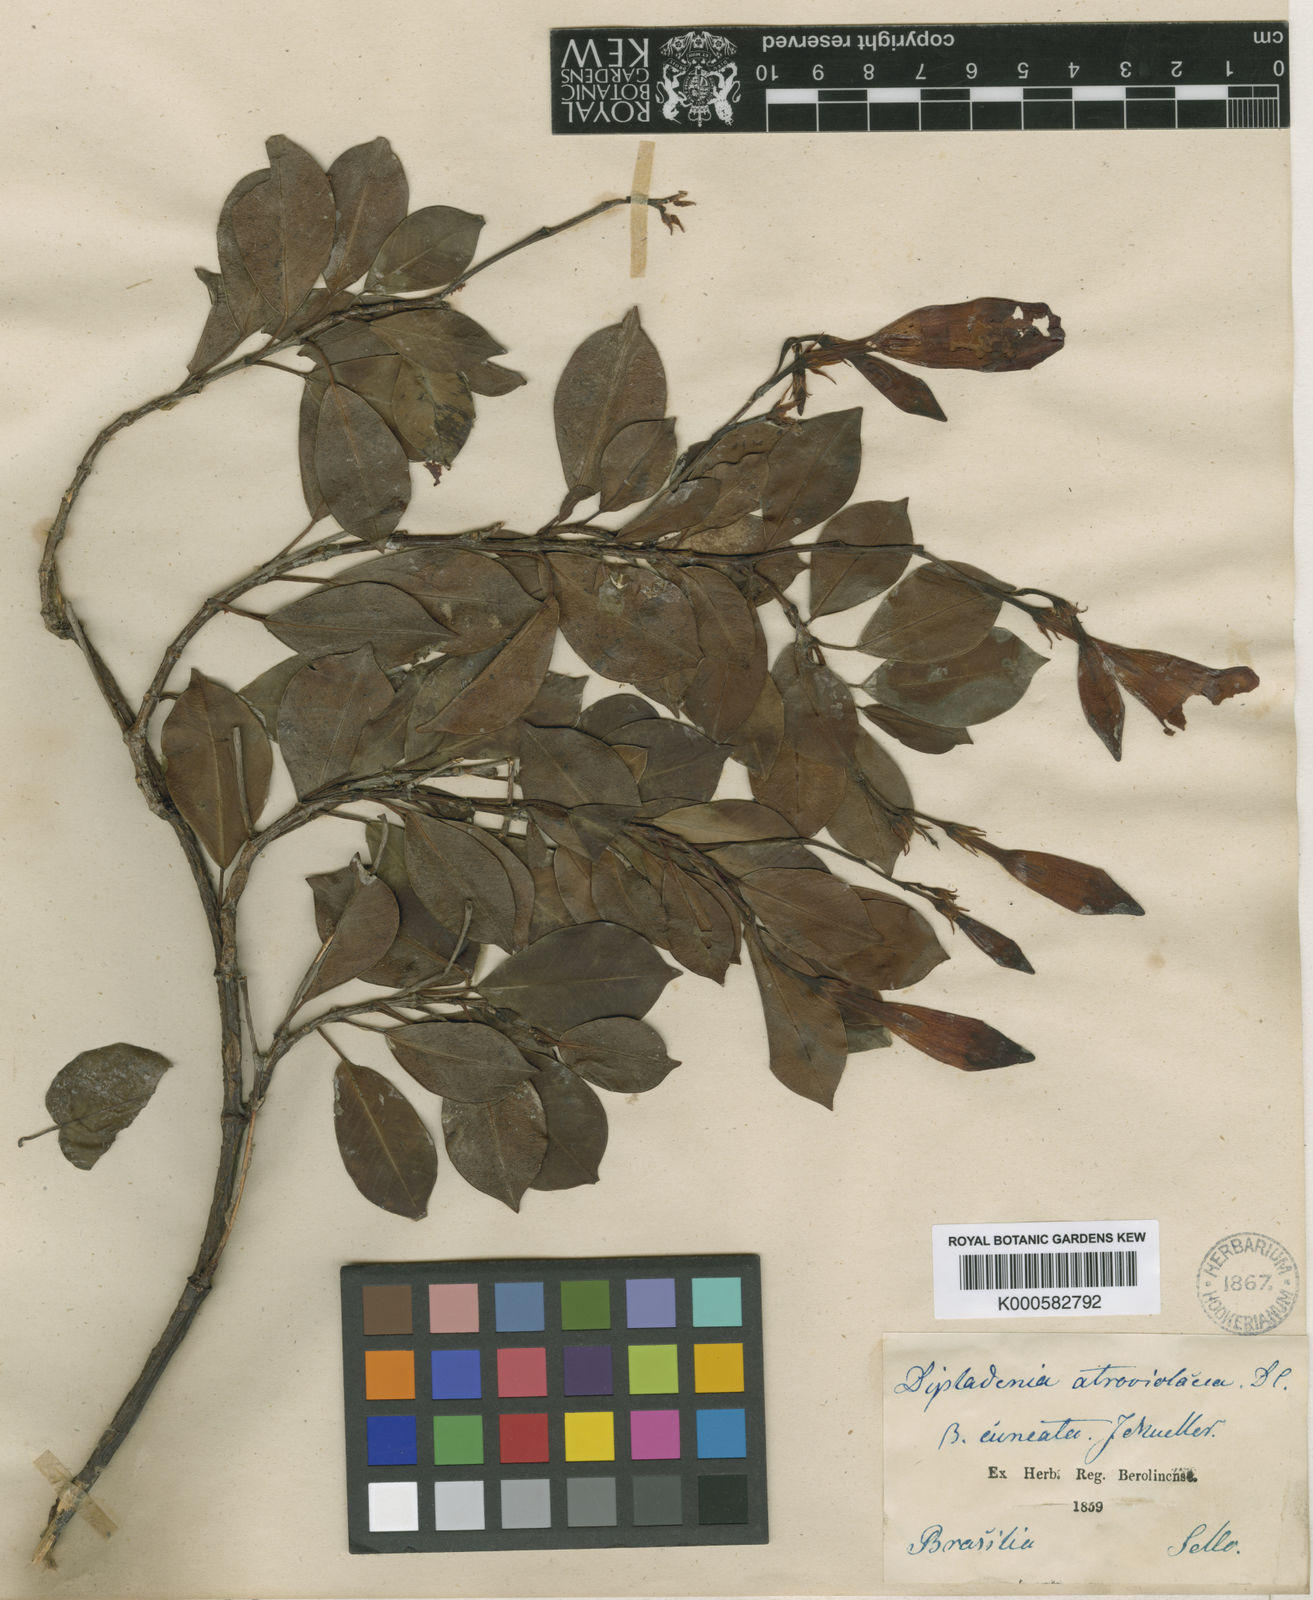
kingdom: Plantae
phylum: Tracheophyta
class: Magnoliopsida
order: Gentianales
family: Apocynaceae
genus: Mandevilla
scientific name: Mandevilla atroviolacea
